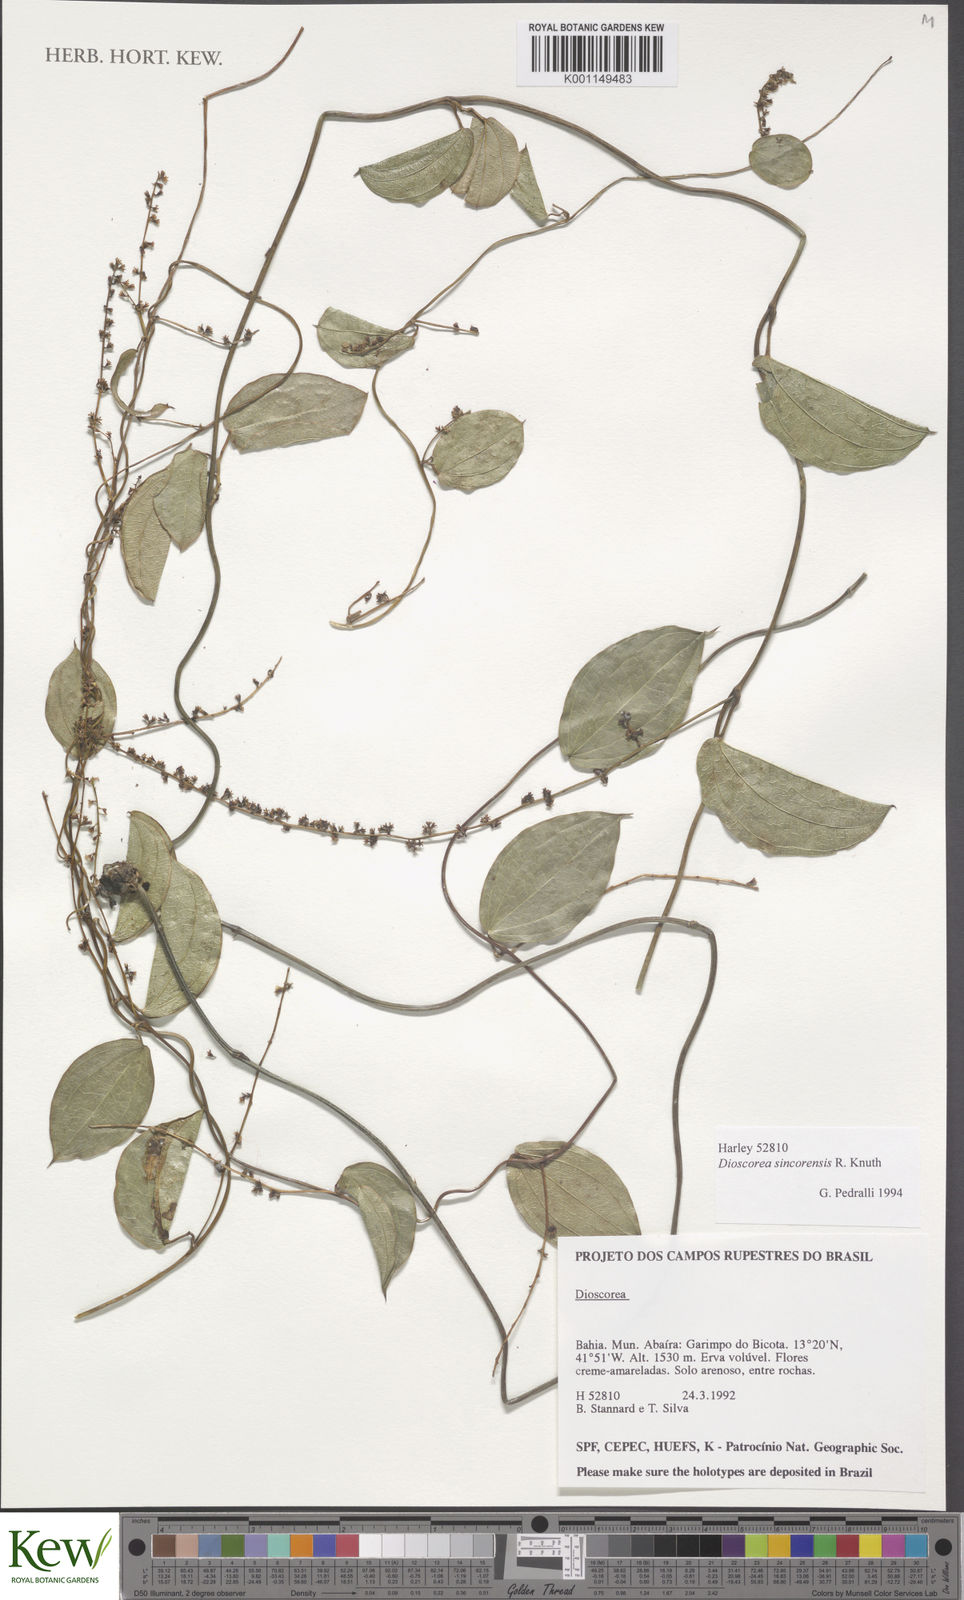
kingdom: Plantae
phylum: Tracheophyta
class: Liliopsida
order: Dioscoreales
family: Dioscoreaceae
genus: Dioscorea
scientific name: Dioscorea sincorensis
